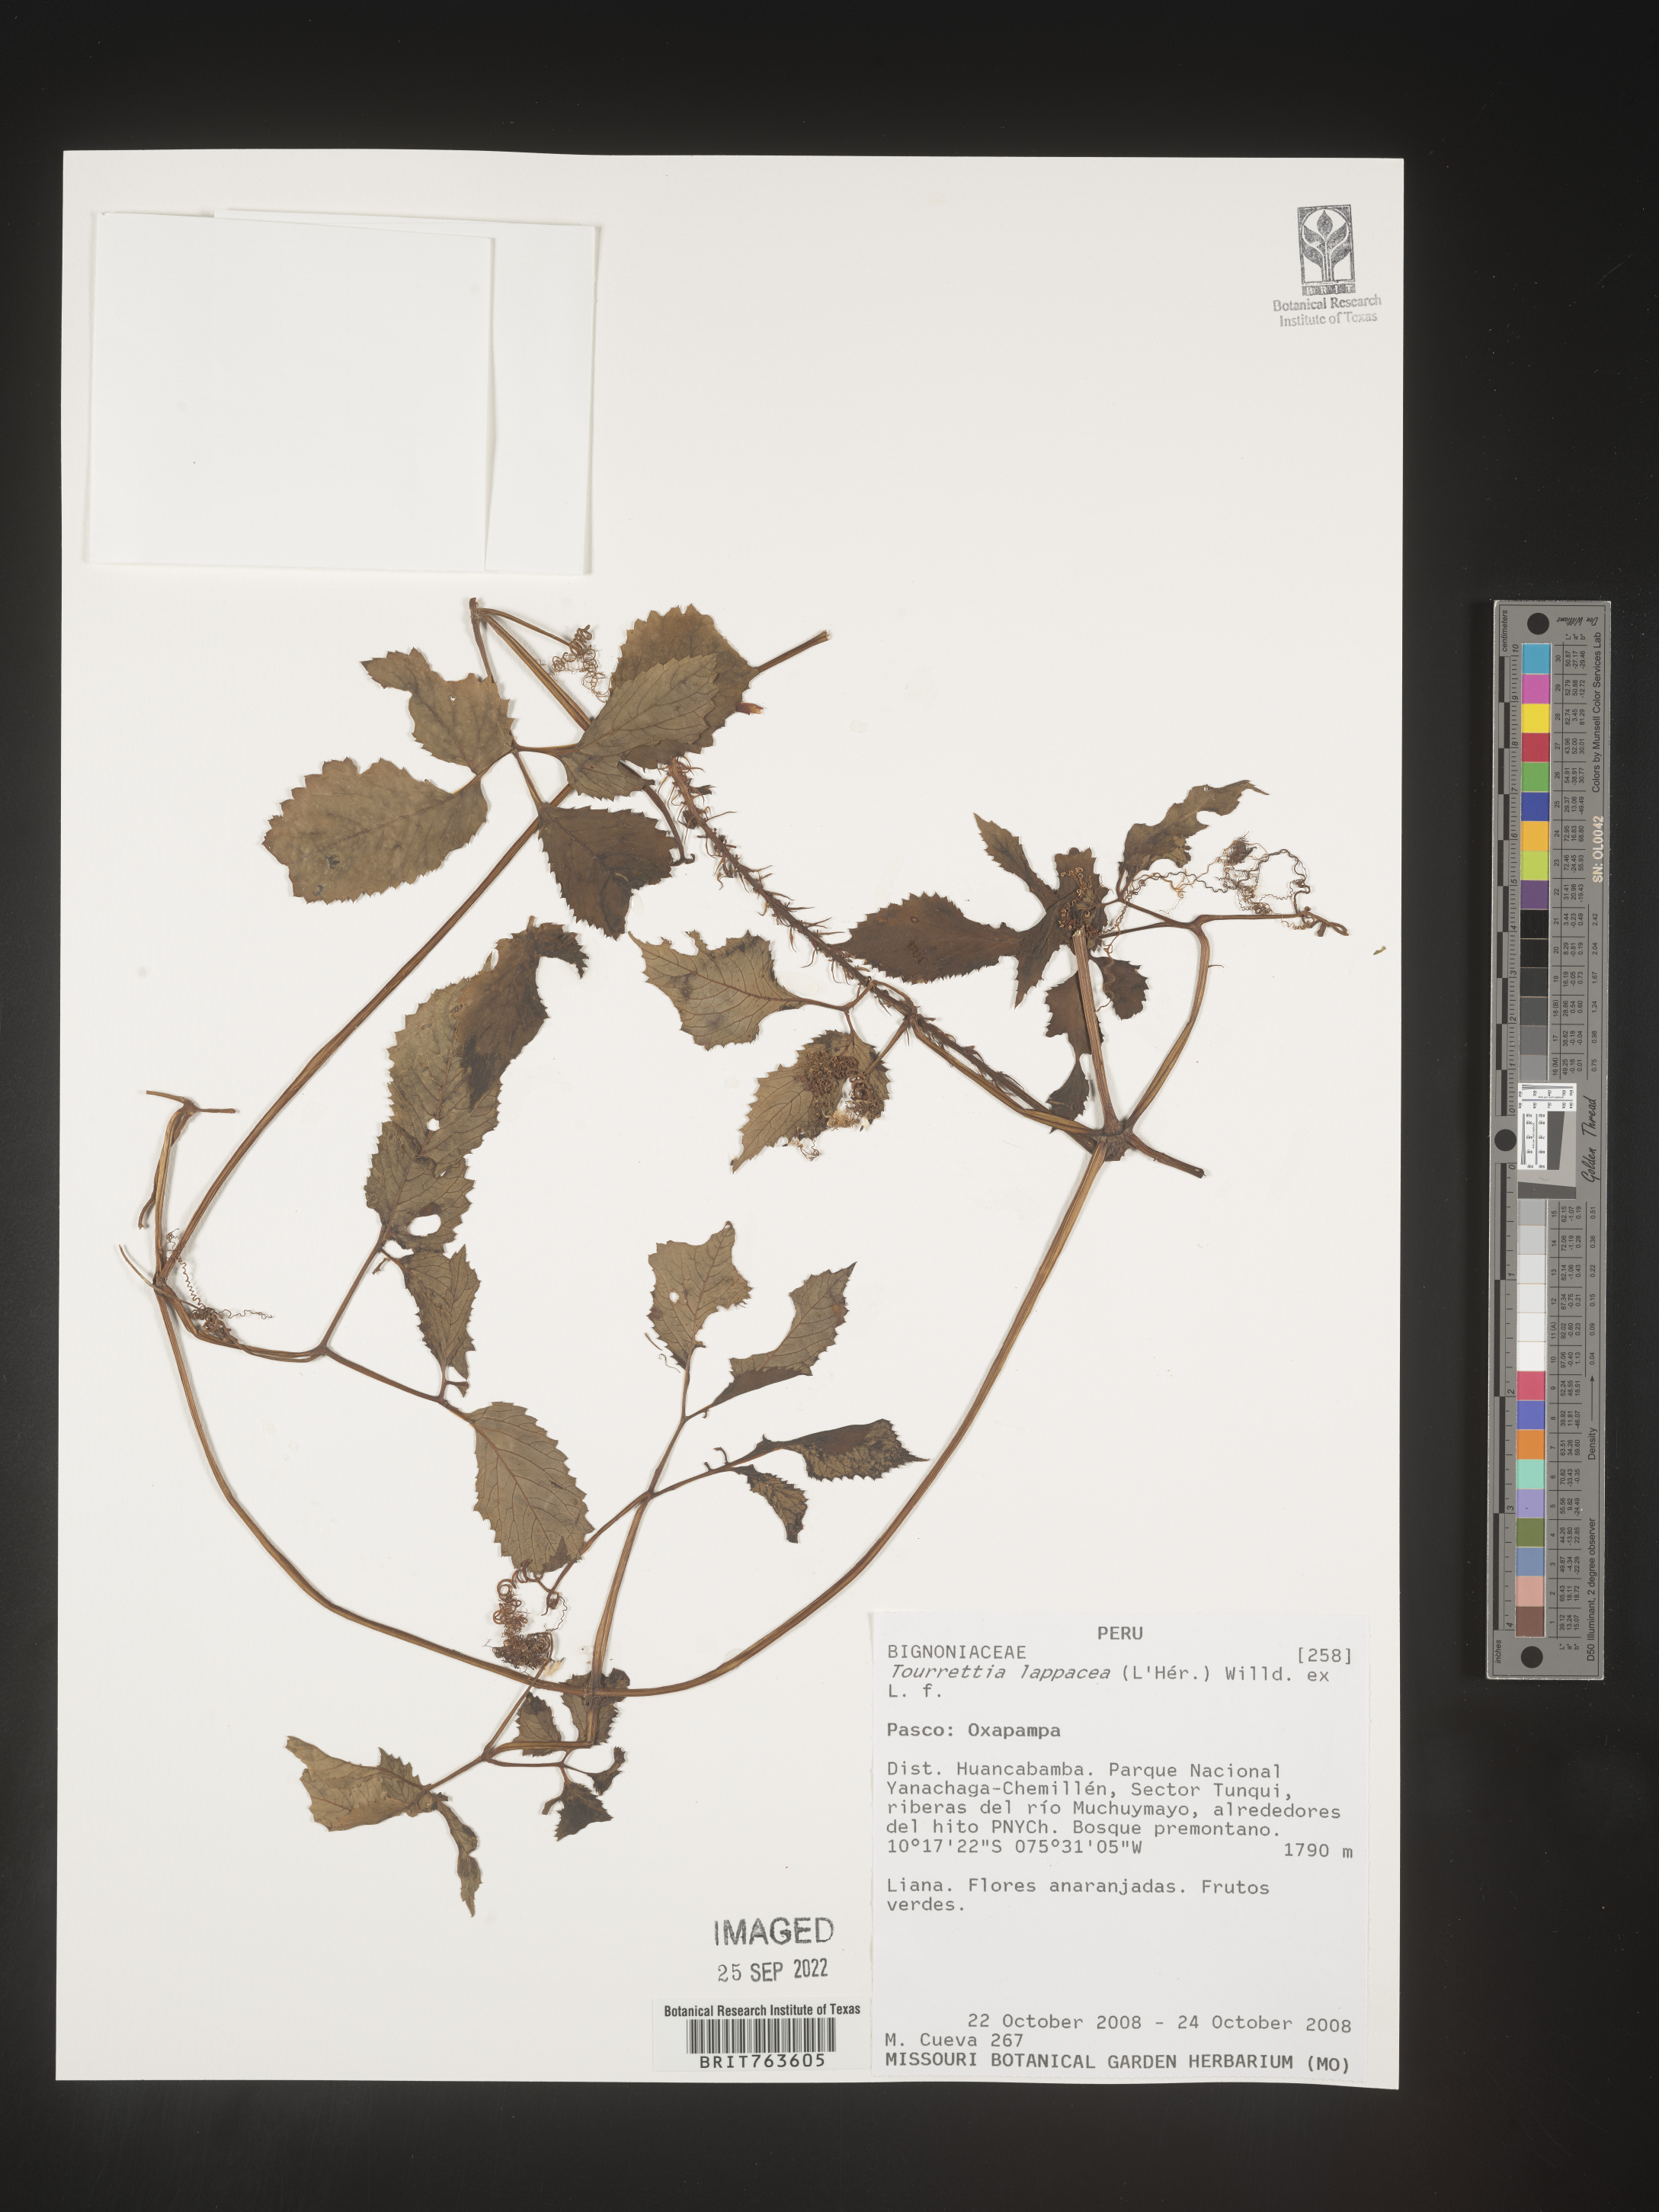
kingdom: Plantae
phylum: Tracheophyta
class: Magnoliopsida
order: Lamiales
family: Bignoniaceae
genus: Tourrettia
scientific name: Tourrettia lappacea
